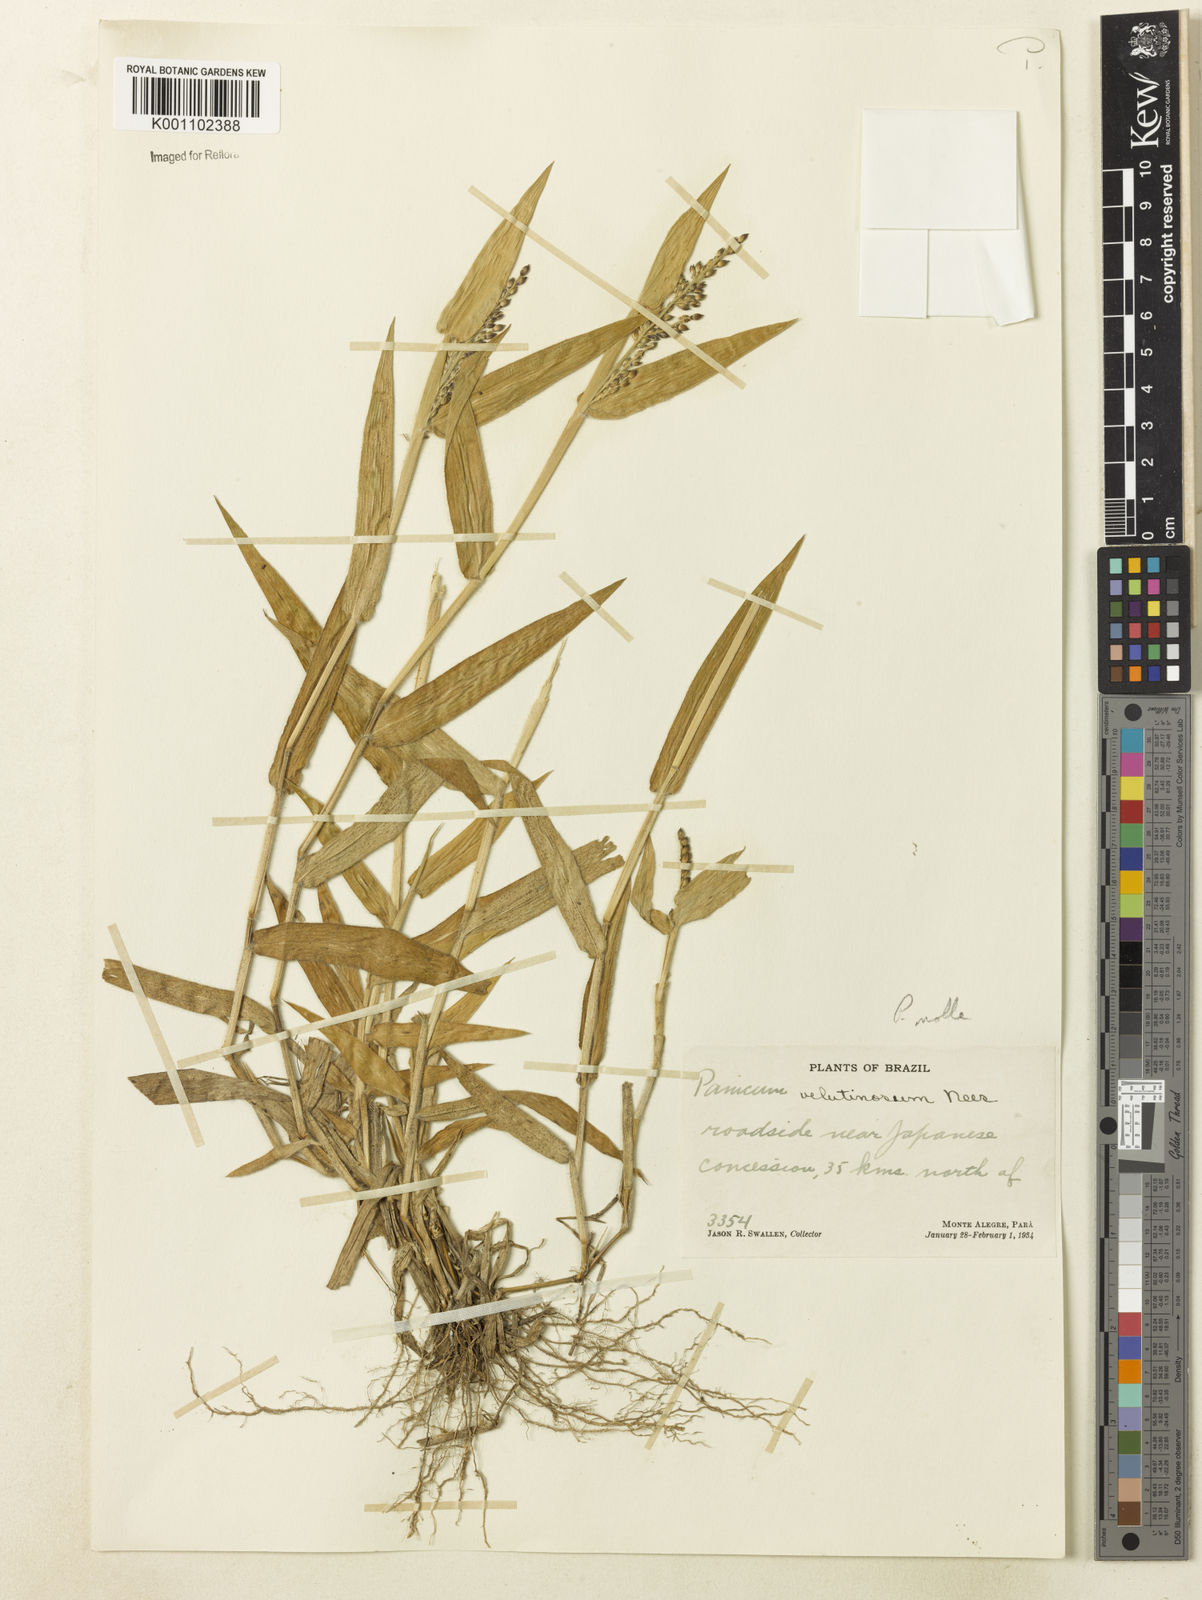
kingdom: Plantae
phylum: Tracheophyta
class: Liliopsida
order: Poales
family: Poaceae
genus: Urochloa
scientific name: Urochloa mollis
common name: Grass
